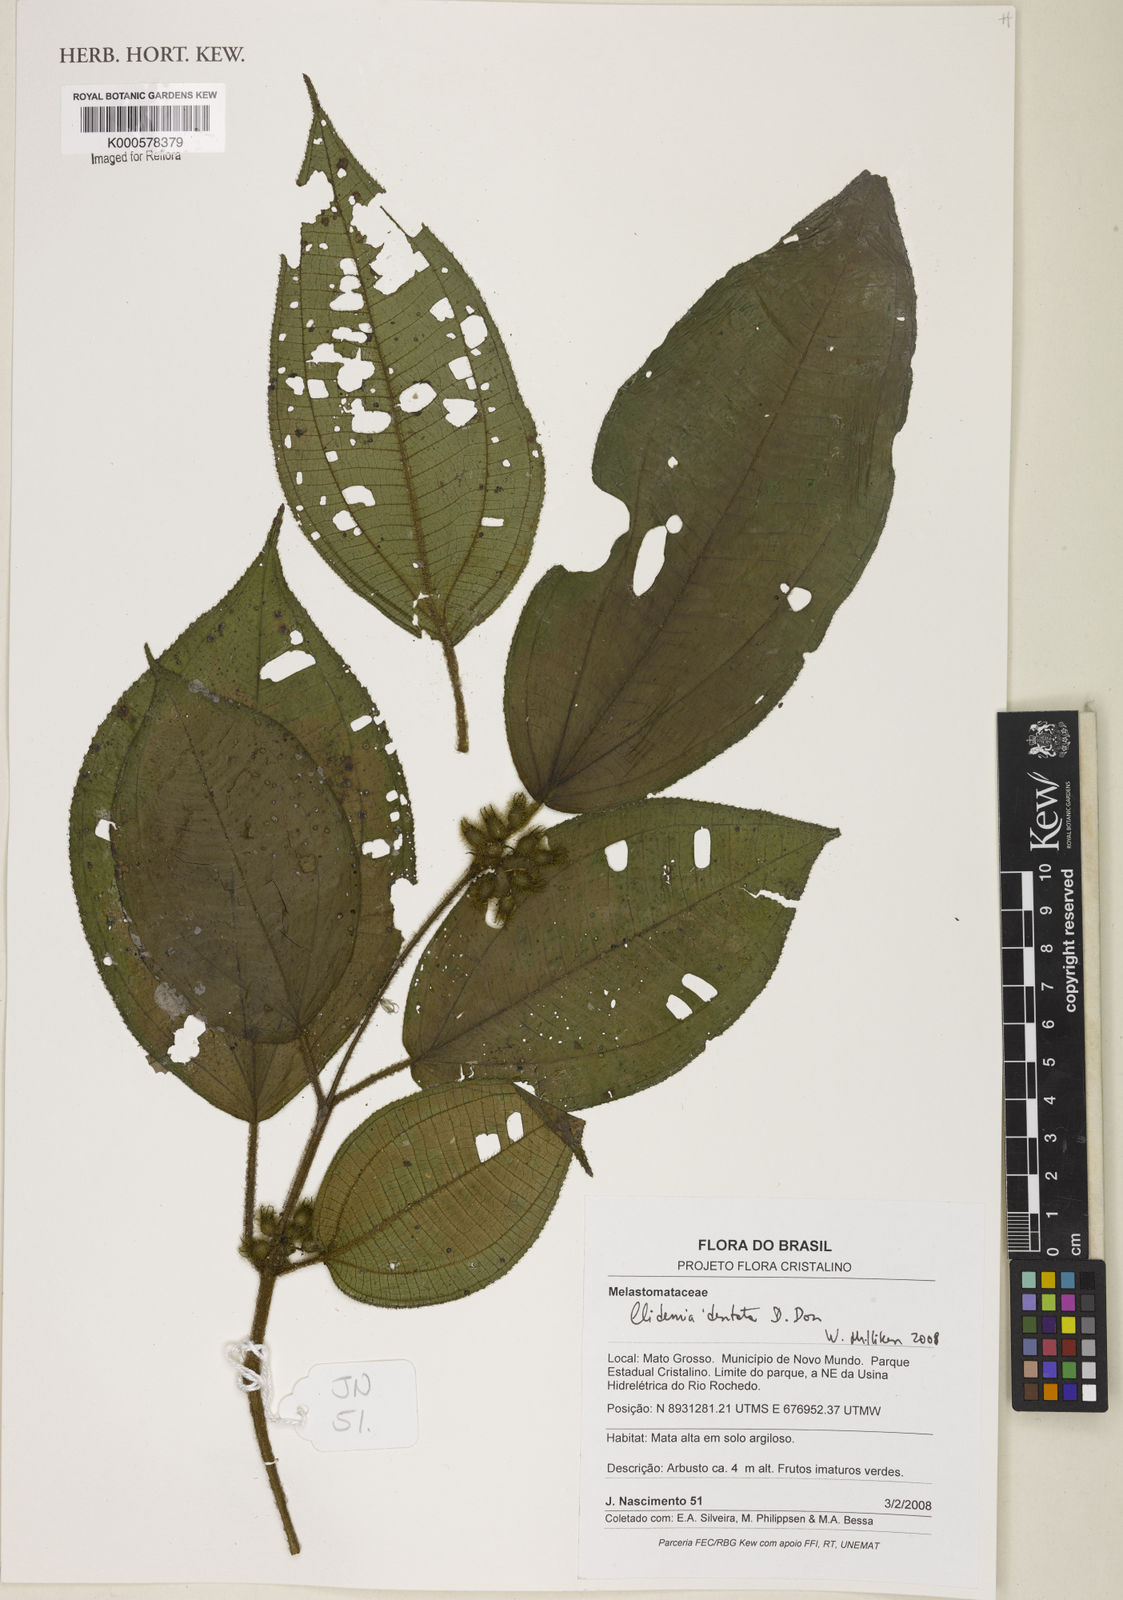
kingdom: Plantae
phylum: Tracheophyta
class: Magnoliopsida
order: Myrtales
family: Melastomataceae
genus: Miconia
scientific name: Miconia dentata
